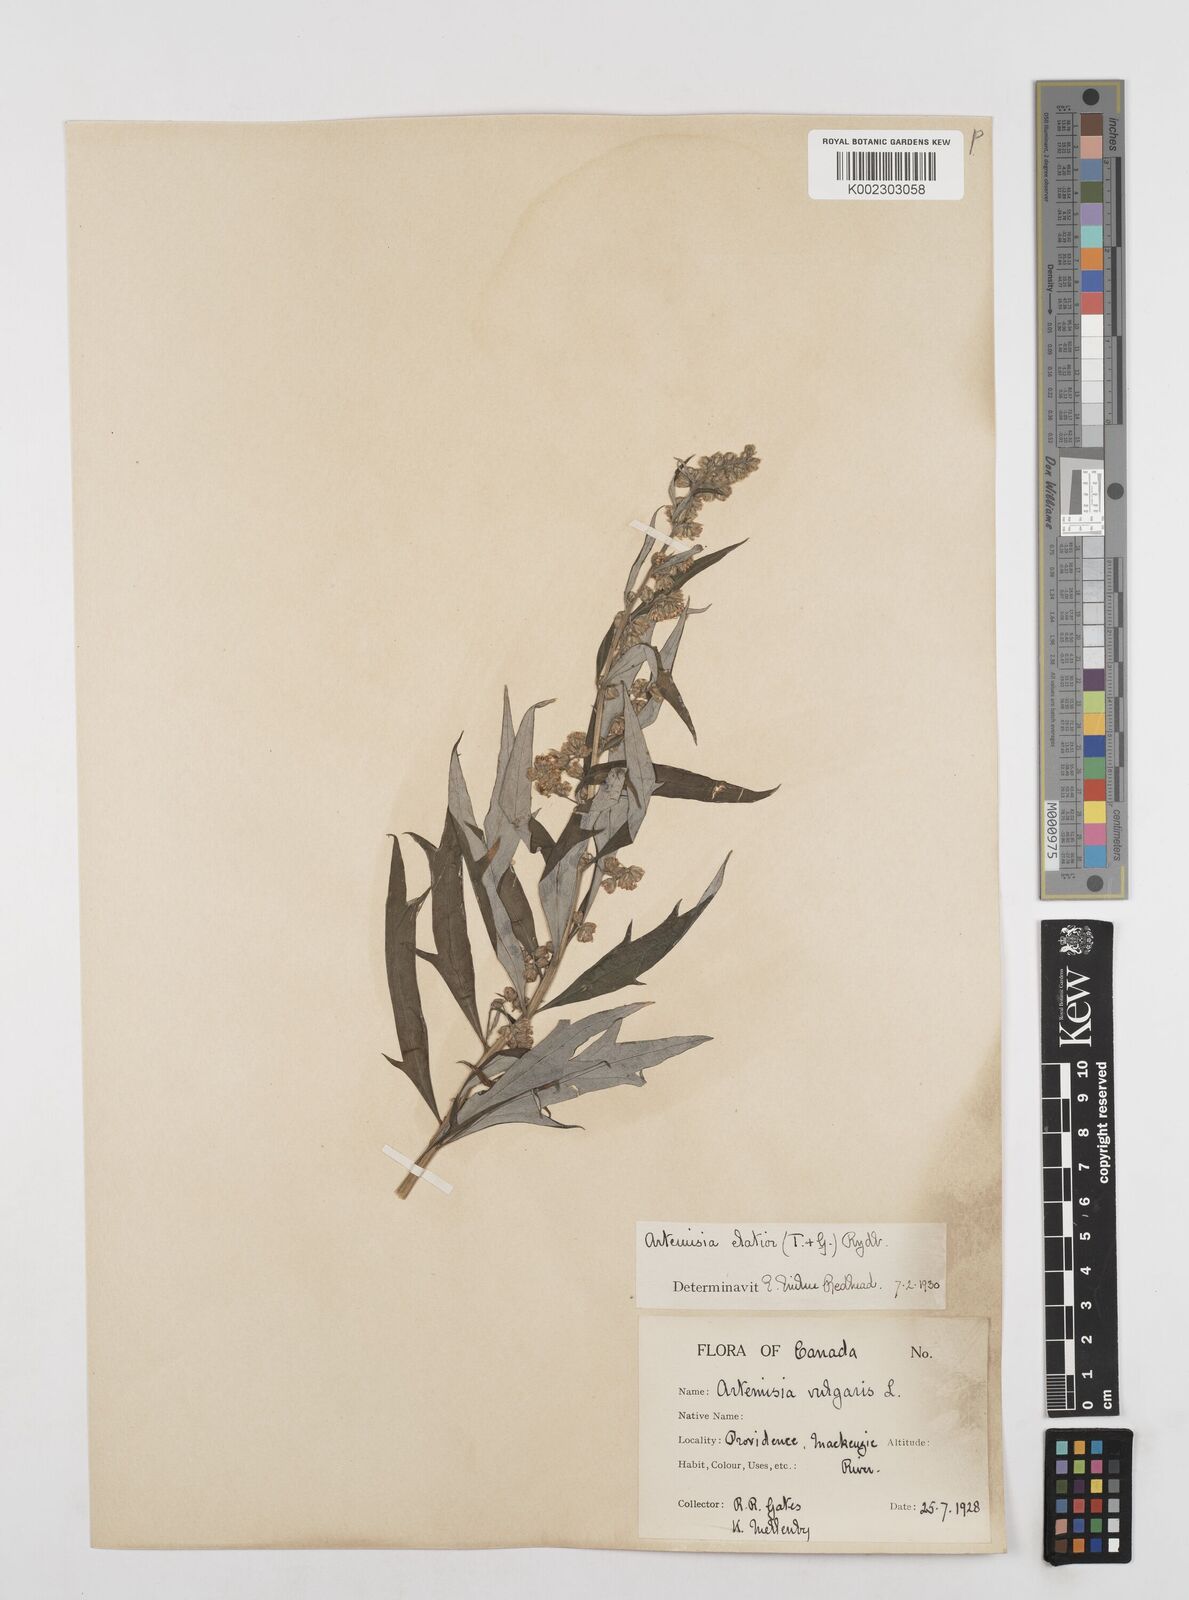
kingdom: Plantae
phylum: Tracheophyta
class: Magnoliopsida
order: Asterales
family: Asteraceae
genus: Artemisia
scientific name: Artemisia tilesii
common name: Aleutian mugwort
